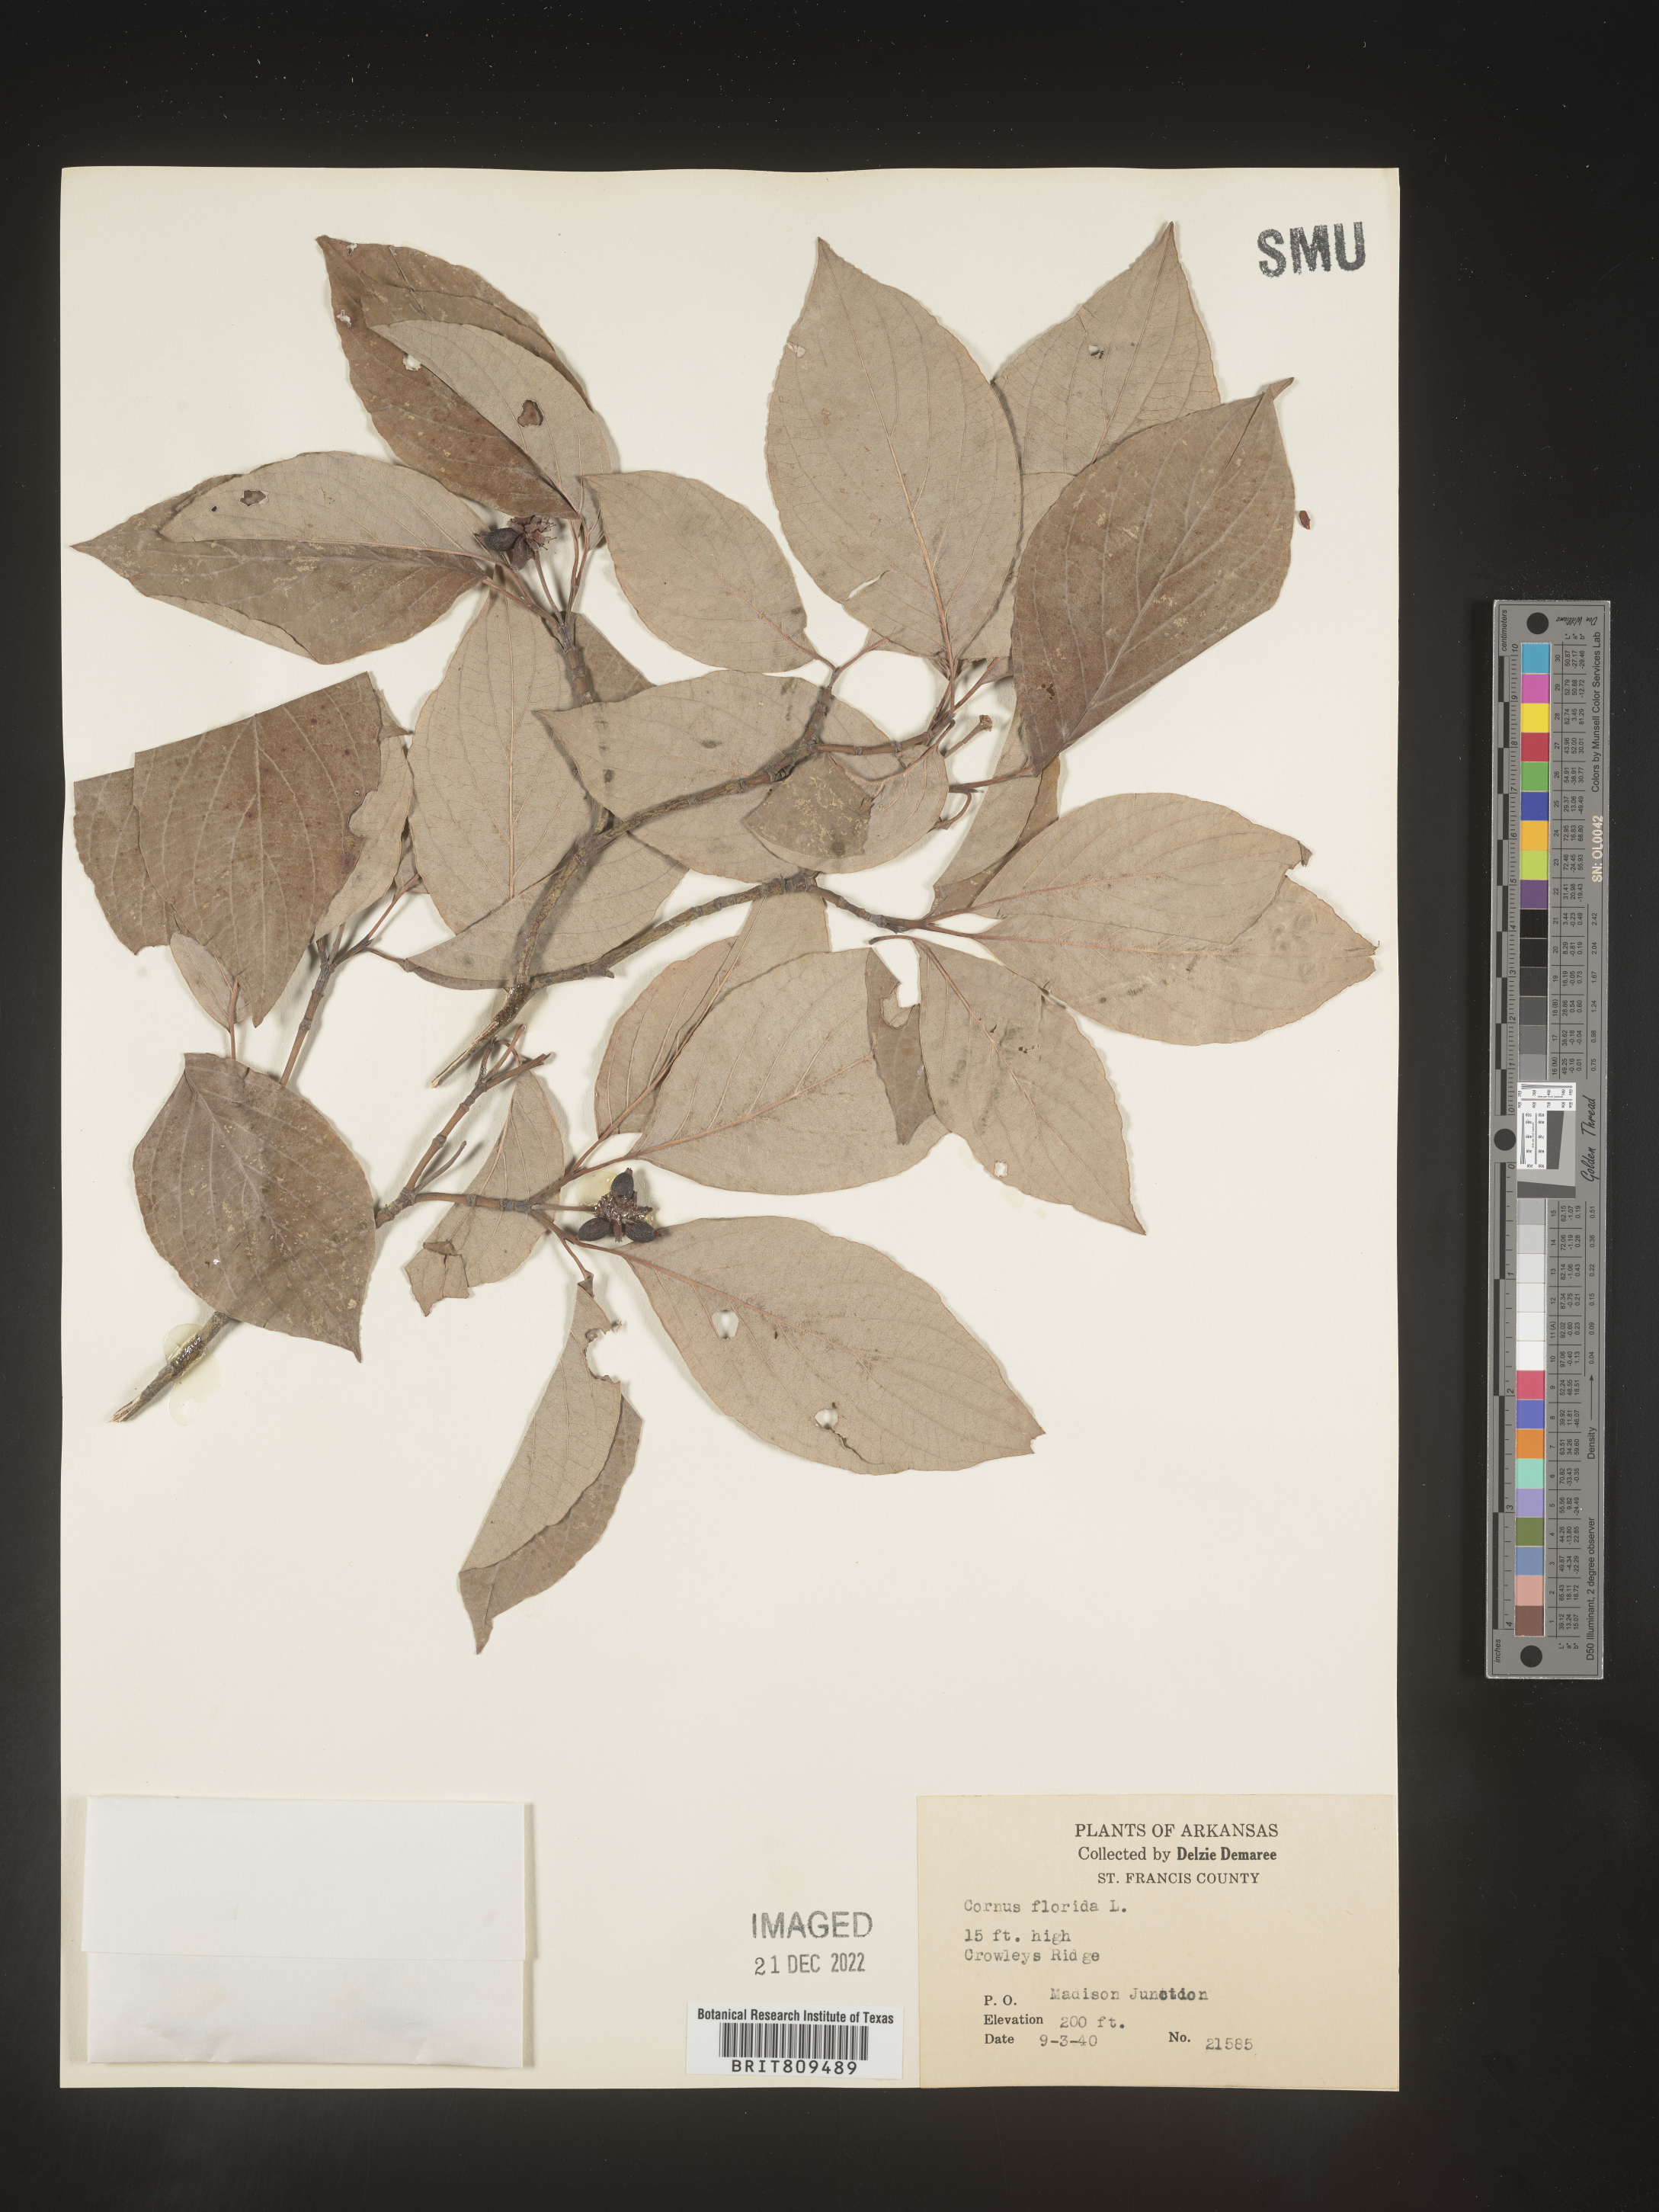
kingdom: Plantae
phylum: Tracheophyta
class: Magnoliopsida
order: Cornales
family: Cornaceae
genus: Cornus
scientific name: Cornus florida
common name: Flowering dogwood
